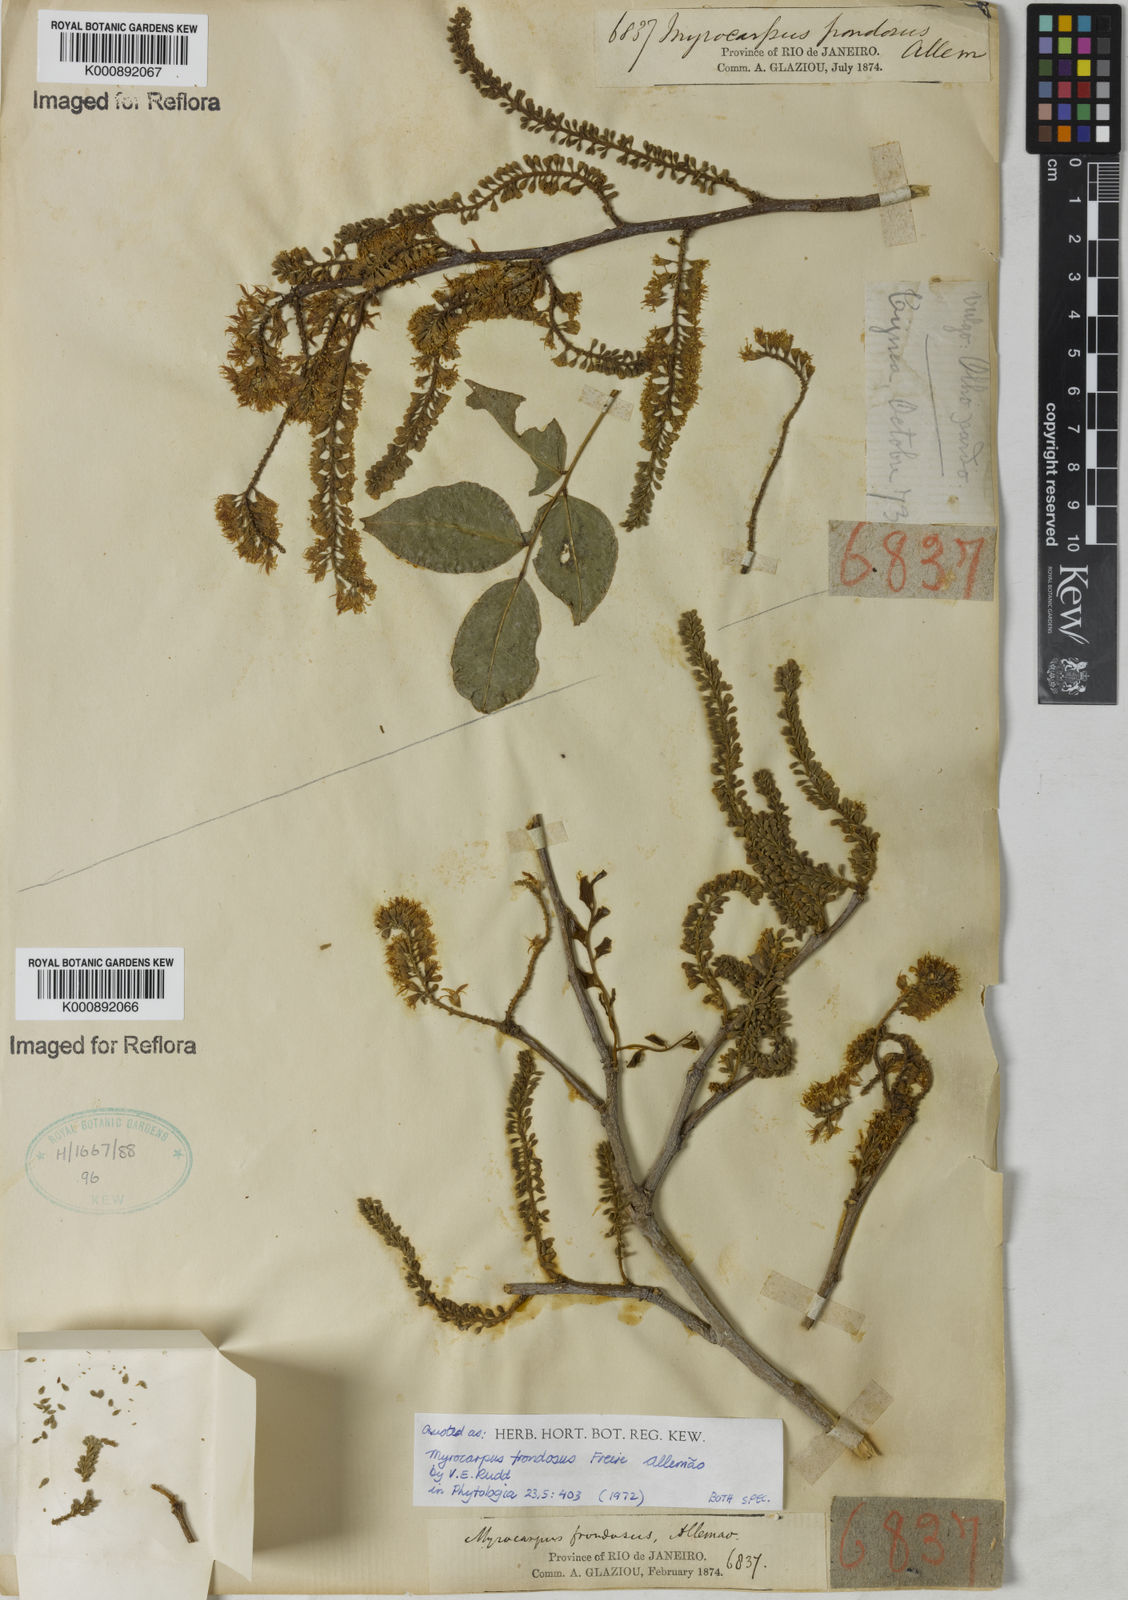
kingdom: Plantae
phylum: Tracheophyta
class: Magnoliopsida
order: Fabales
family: Fabaceae
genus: Myrocarpus
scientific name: Myrocarpus
